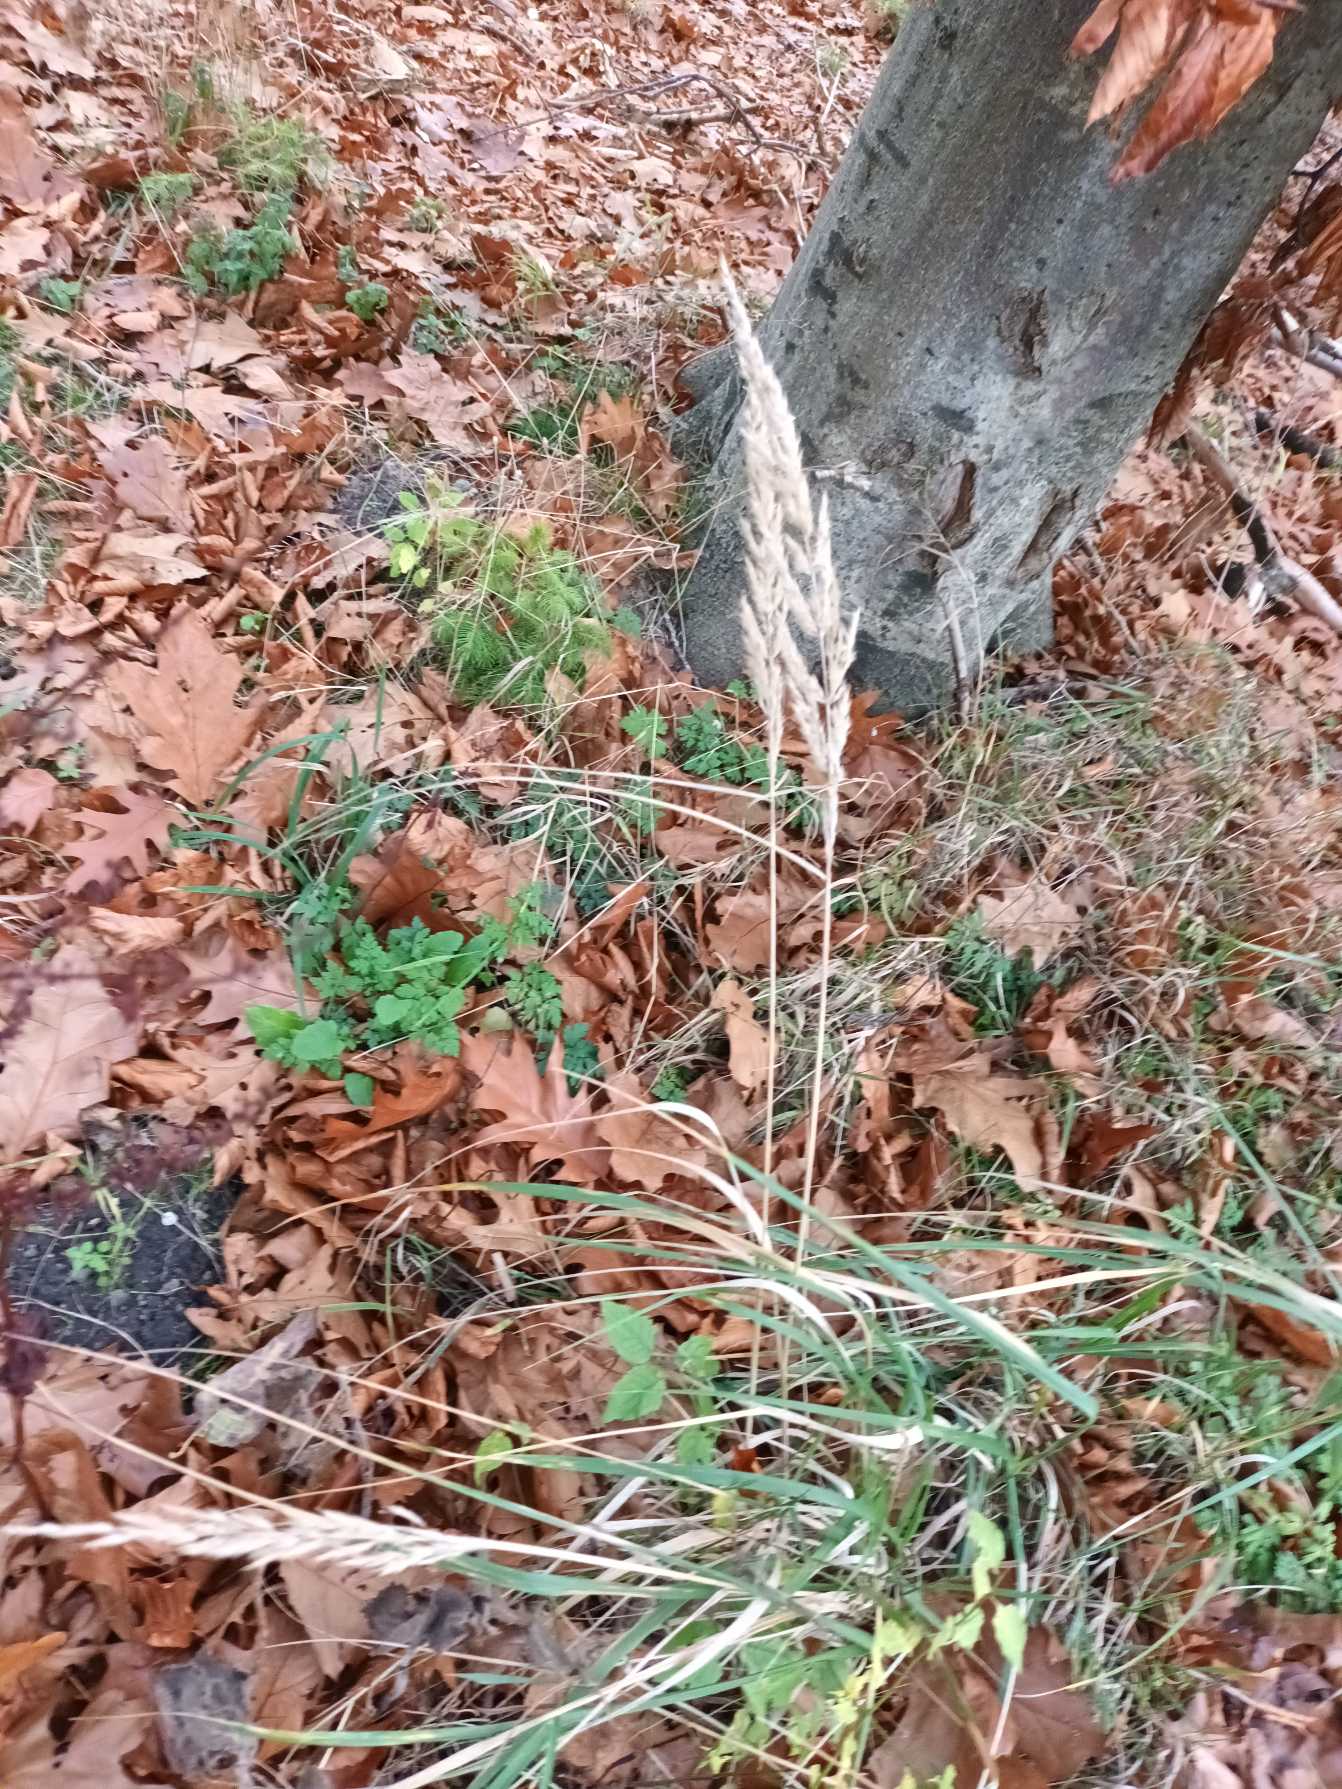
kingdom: Plantae
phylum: Tracheophyta
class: Liliopsida
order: Poales
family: Poaceae
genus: Calamagrostis
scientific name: Calamagrostis epigejos
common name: Bjerg-rørhvene
